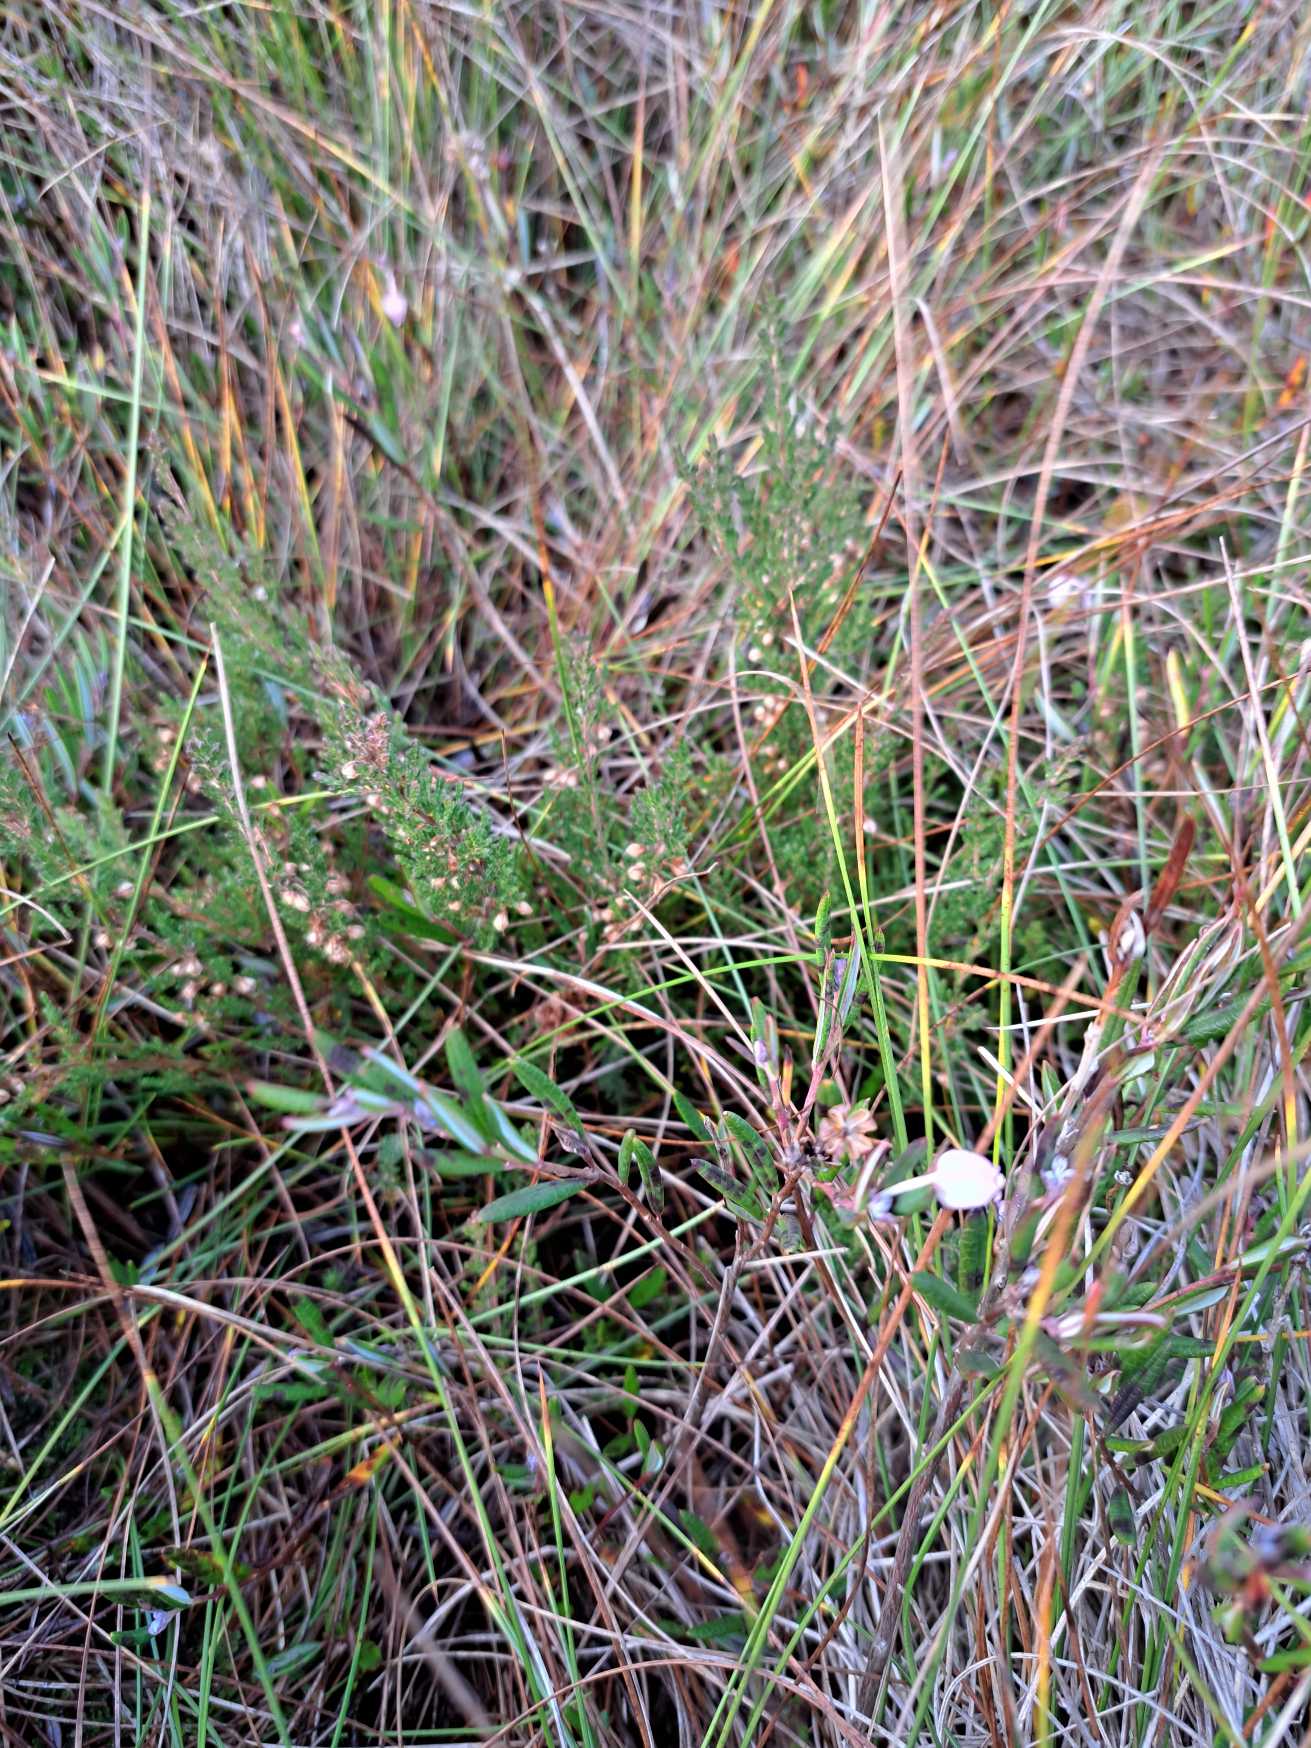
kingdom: Plantae
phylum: Tracheophyta
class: Magnoliopsida
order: Ericales
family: Ericaceae
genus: Andromeda
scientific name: Andromeda polifolia
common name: Rosmarinlyng
